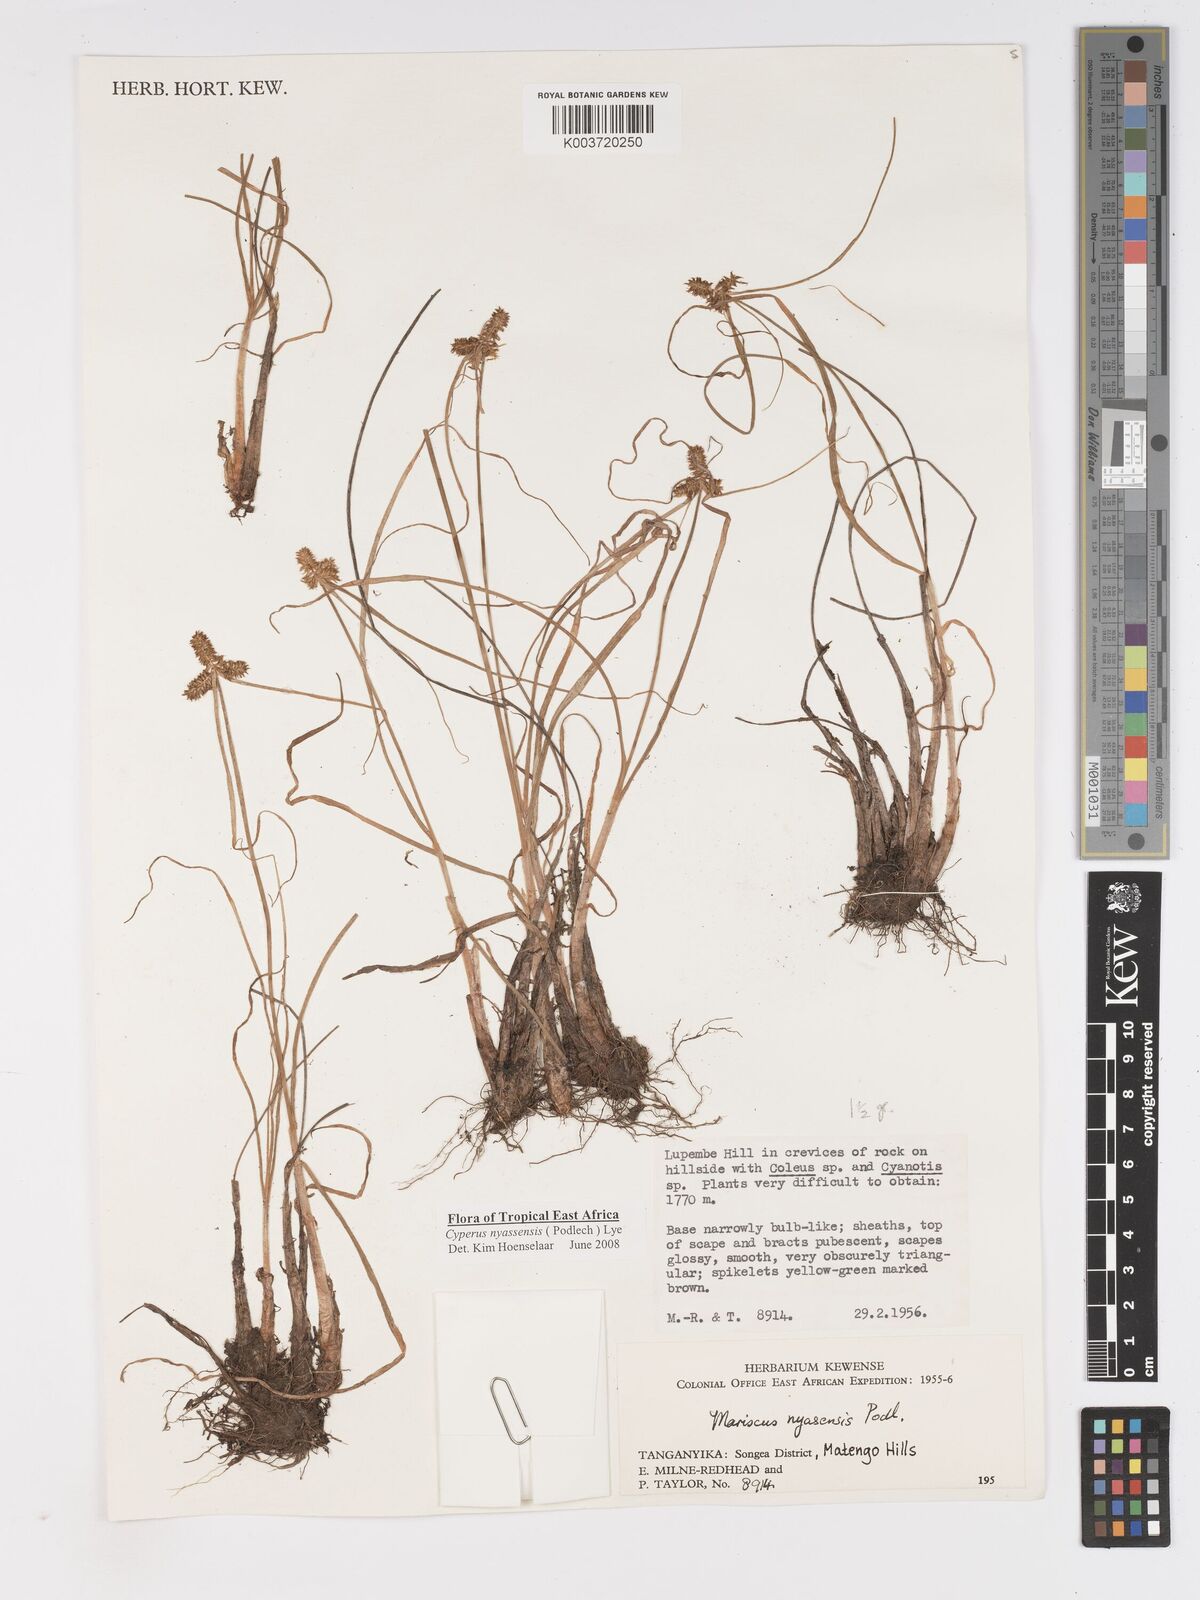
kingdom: Plantae
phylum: Tracheophyta
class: Liliopsida
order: Poales
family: Cyperaceae
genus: Cyperus
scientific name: Cyperus nyasensis
